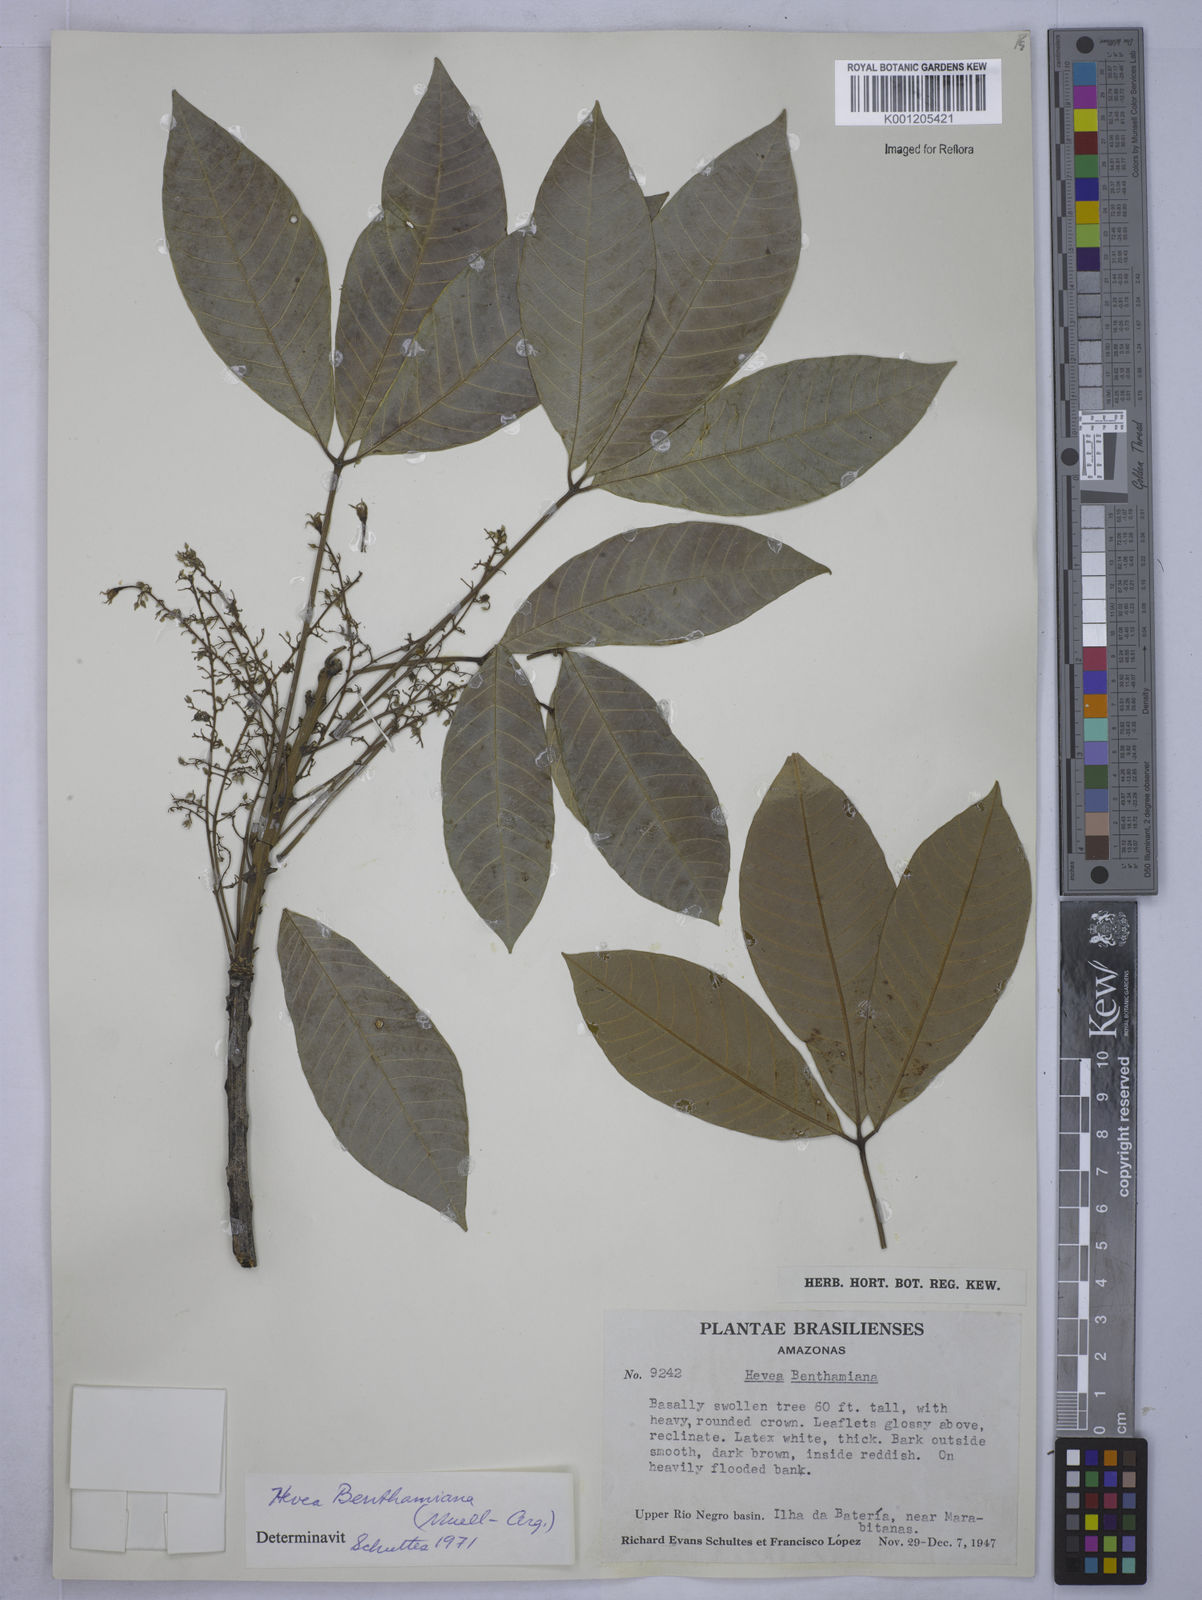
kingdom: Plantae
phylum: Tracheophyta
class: Magnoliopsida
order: Malpighiales
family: Euphorbiaceae
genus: Hevea
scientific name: Hevea
